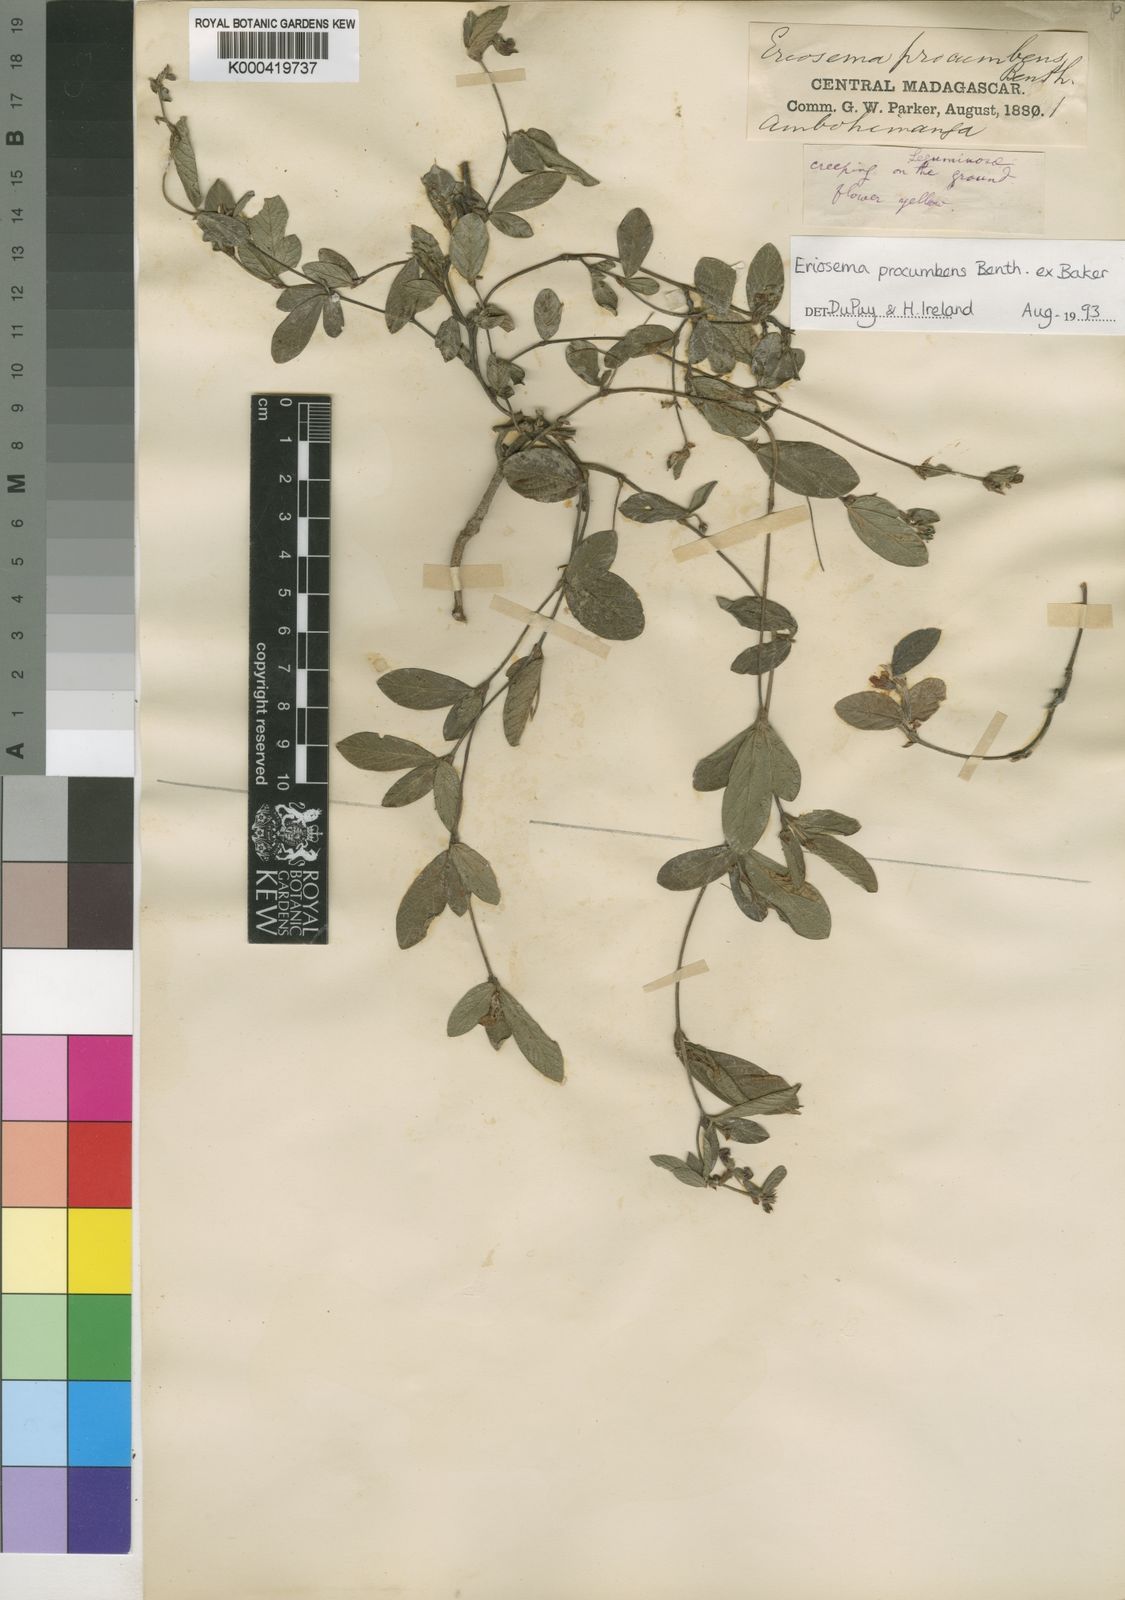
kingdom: Plantae
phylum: Tracheophyta
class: Magnoliopsida
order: Fabales
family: Fabaceae
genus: Eriosema
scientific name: Eriosema procumbens
